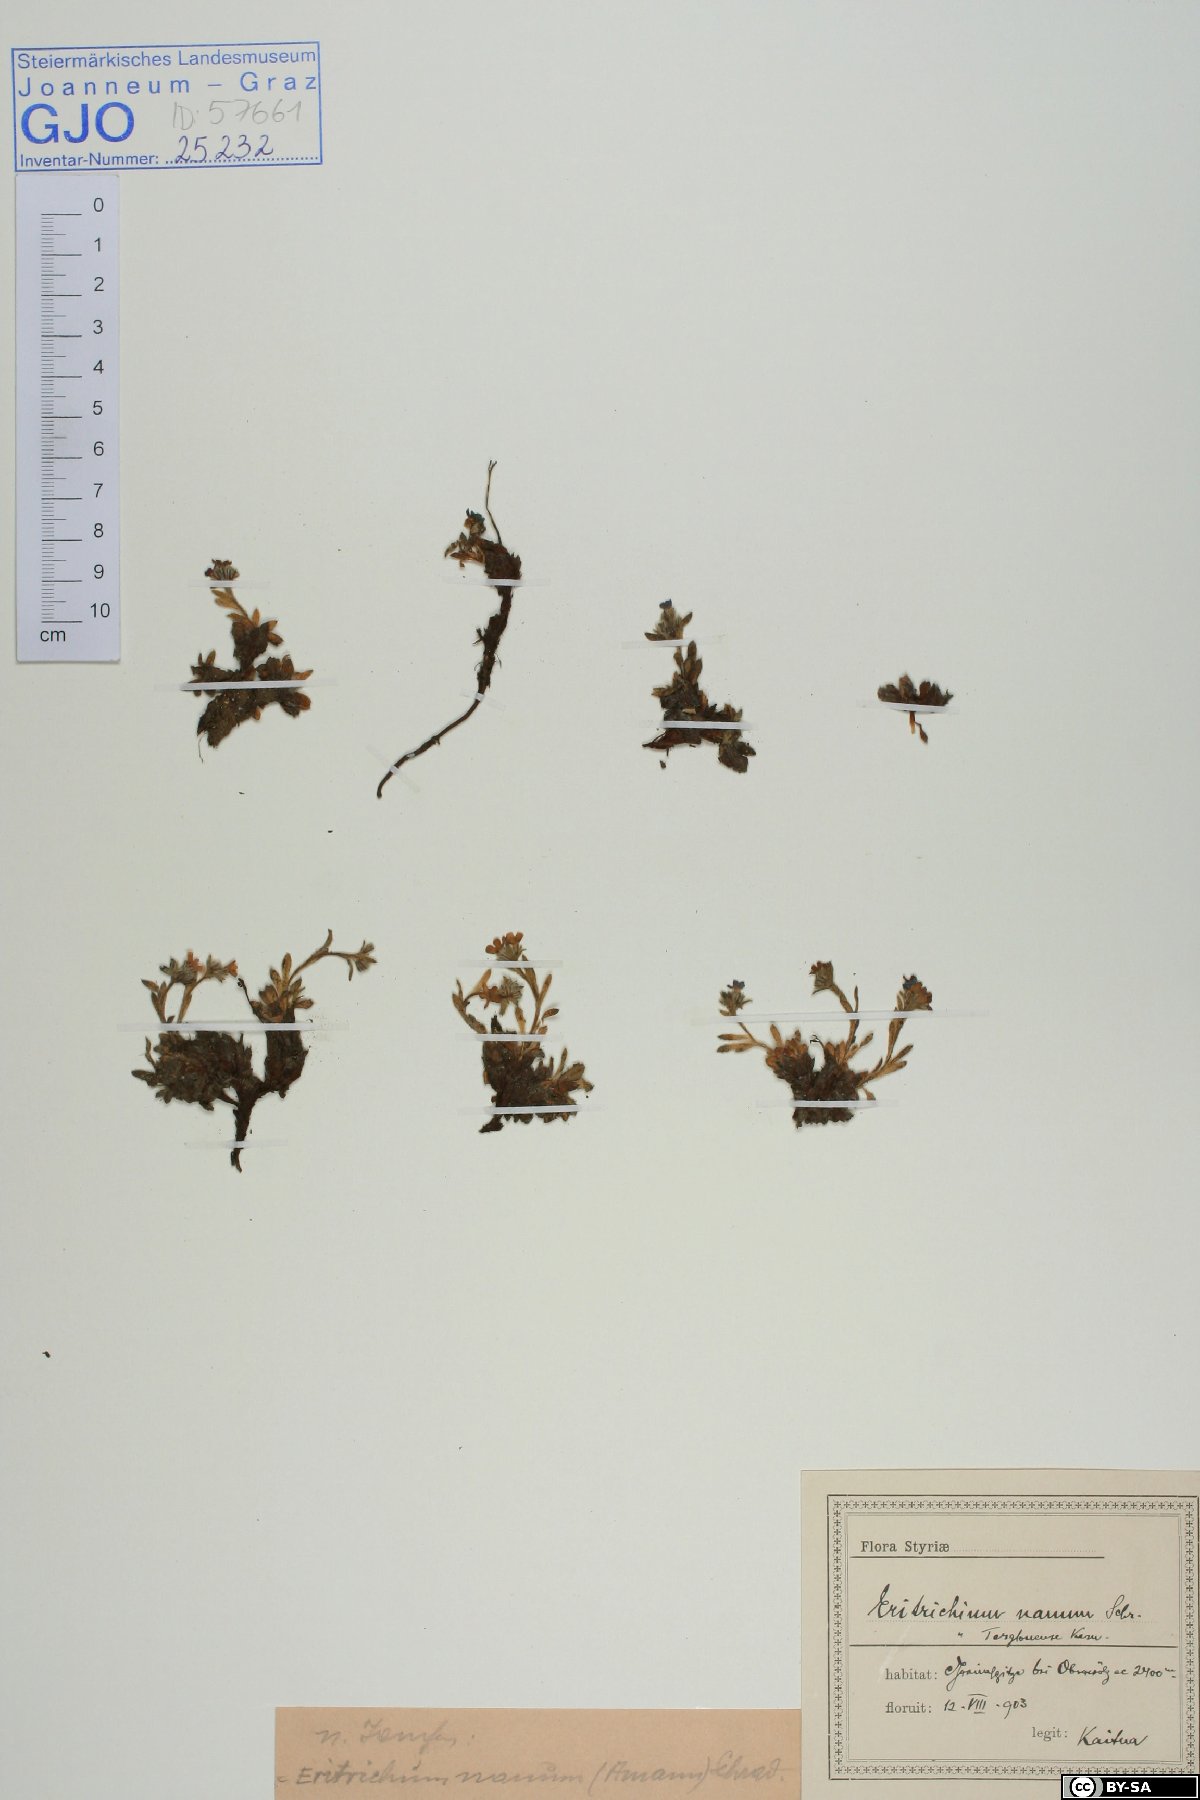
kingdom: Plantae
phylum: Tracheophyta
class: Magnoliopsida
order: Boraginales
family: Boraginaceae
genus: Eritrichium
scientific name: Eritrichium nanum
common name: King-of-the-alps
